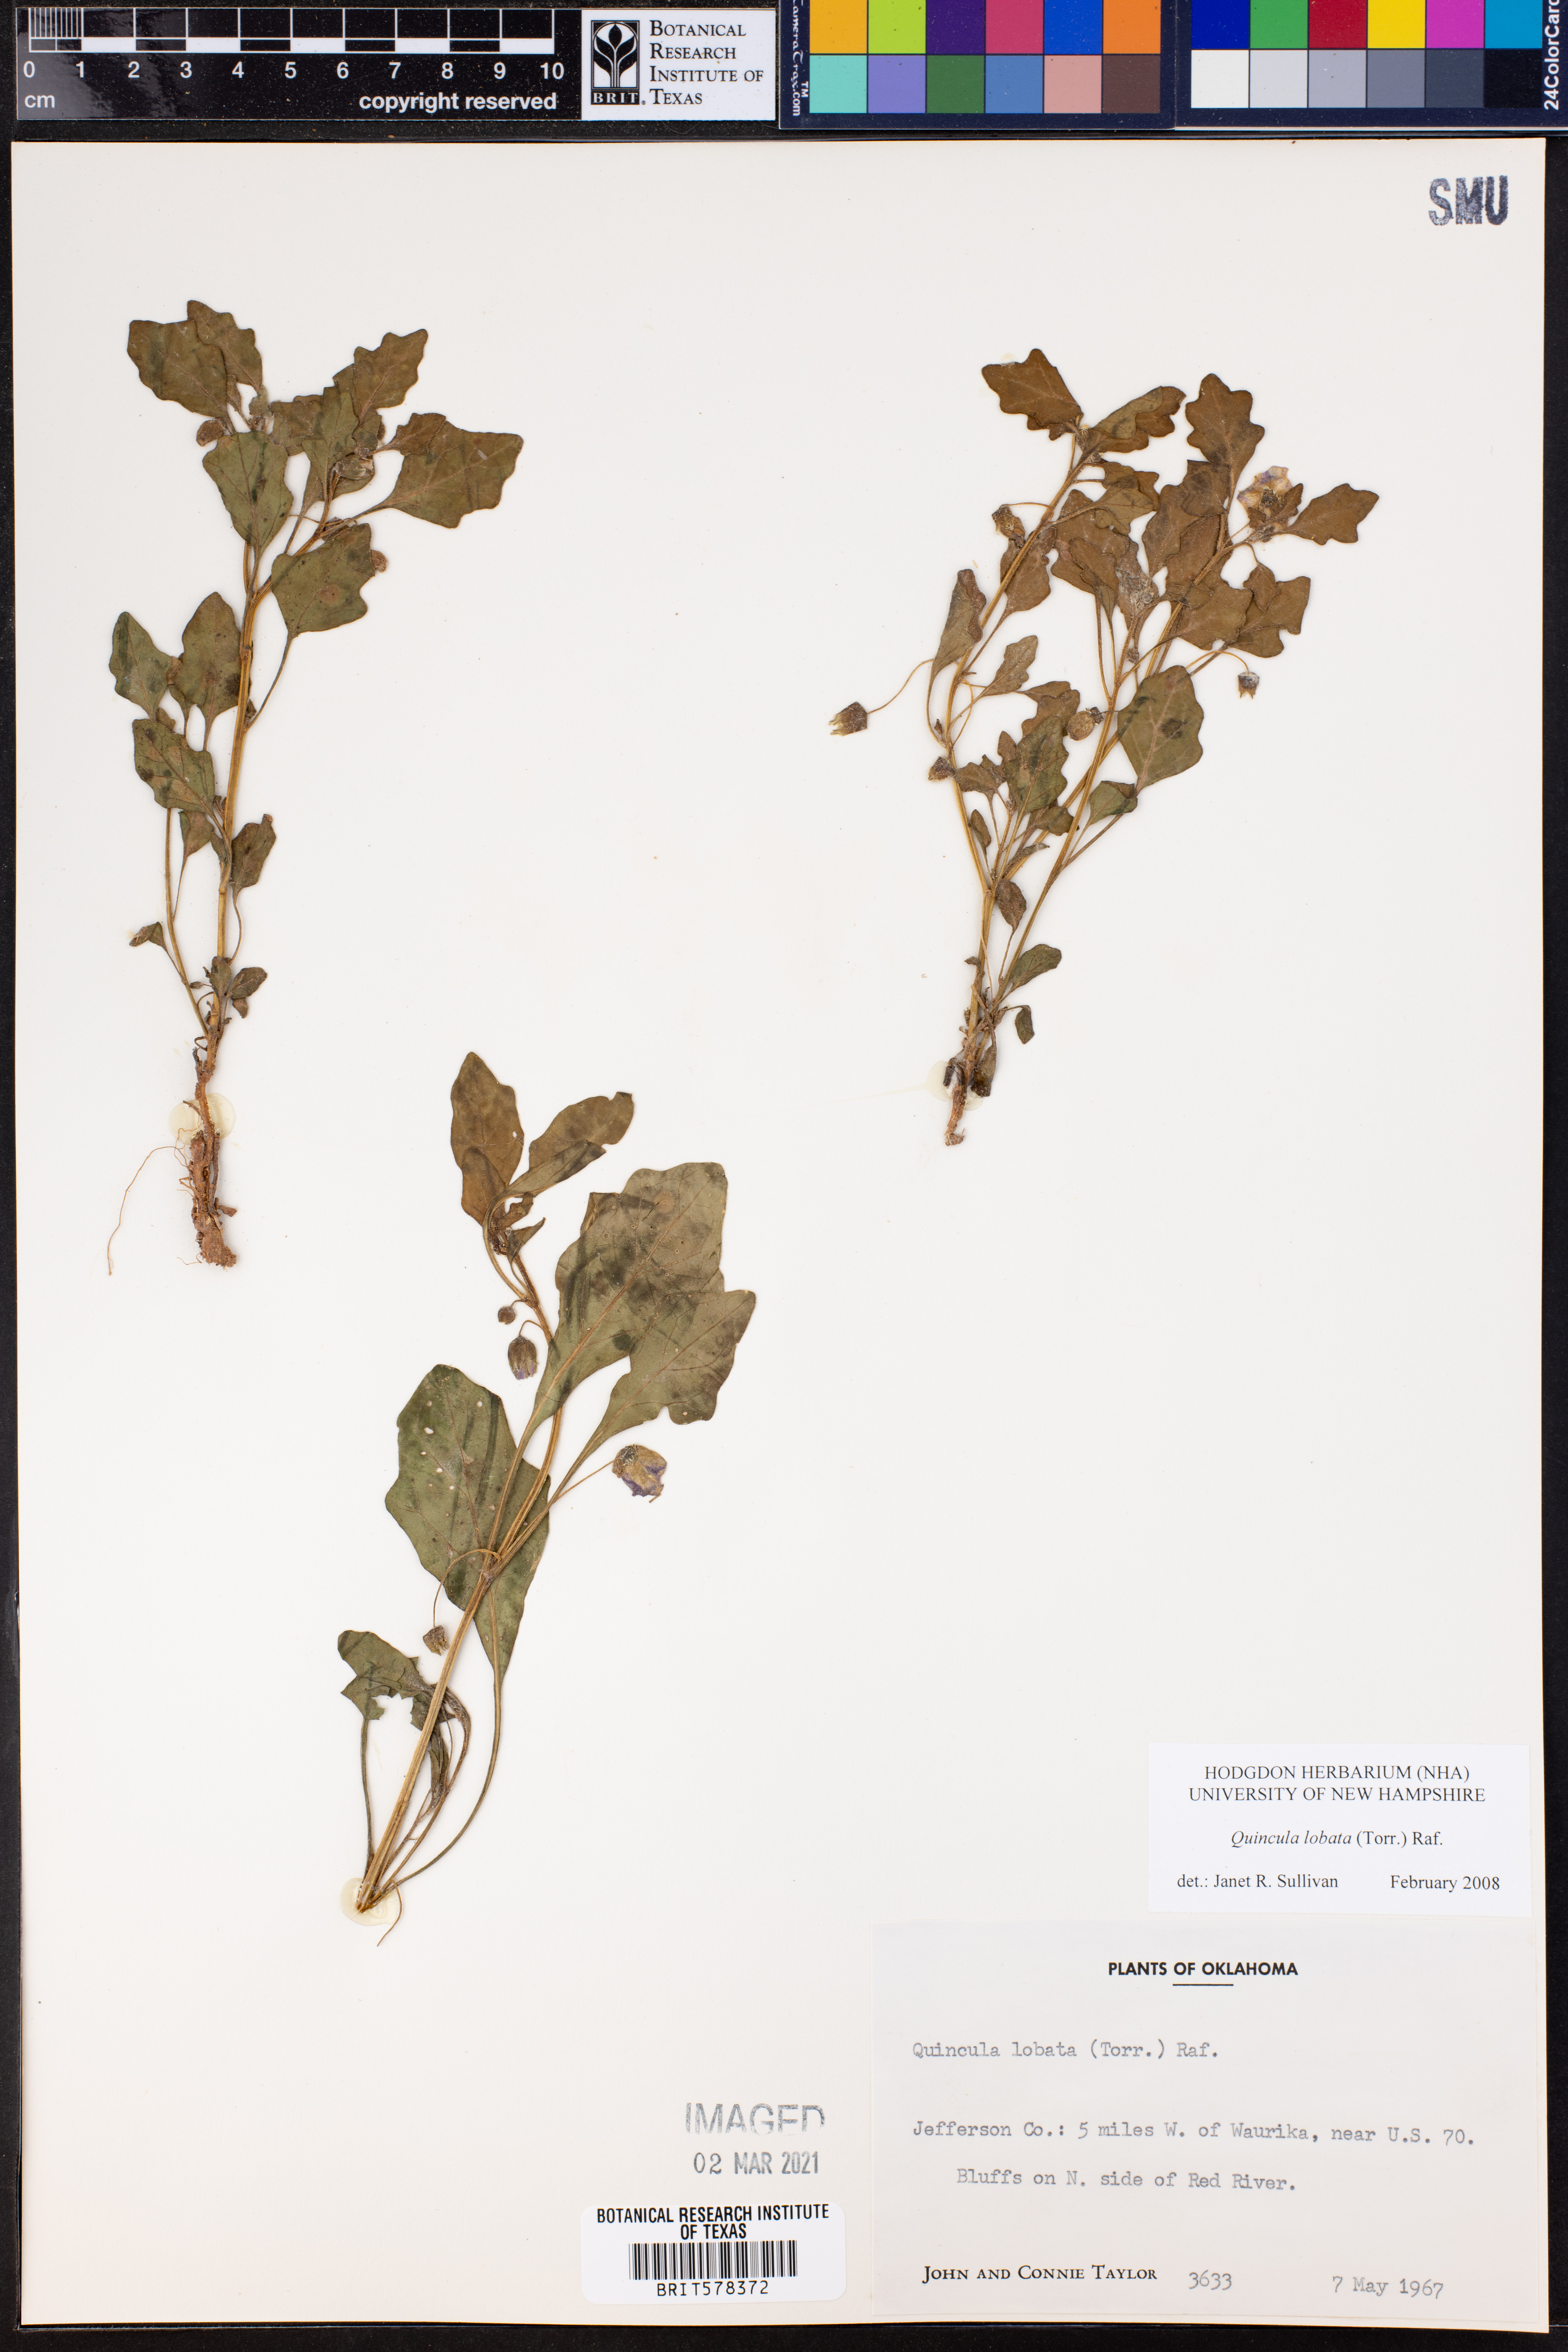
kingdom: Plantae
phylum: Tracheophyta
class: Magnoliopsida
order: Solanales
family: Solanaceae
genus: Quincula
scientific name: Quincula lobata
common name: Purple-ground-cherry
